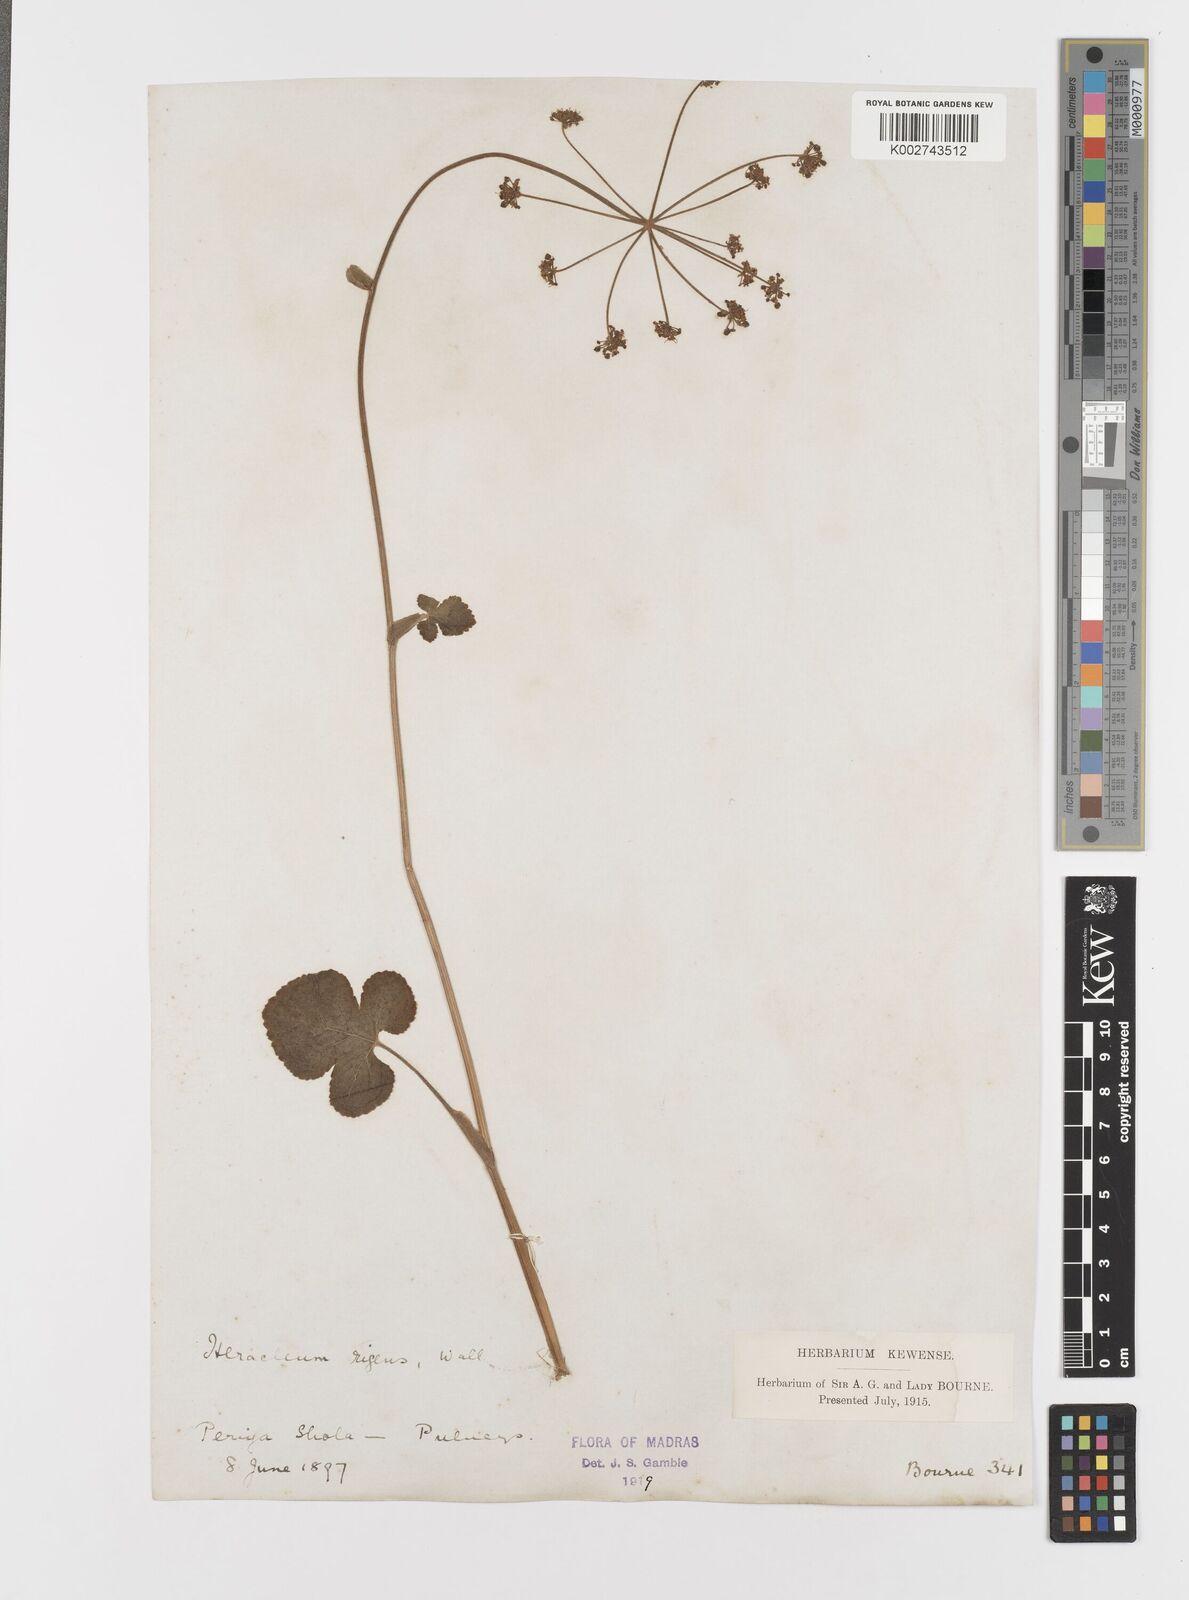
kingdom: Plantae
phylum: Tracheophyta
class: Magnoliopsida
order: Apiales
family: Apiaceae
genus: Tetrataenium
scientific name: Tetrataenium rigens
